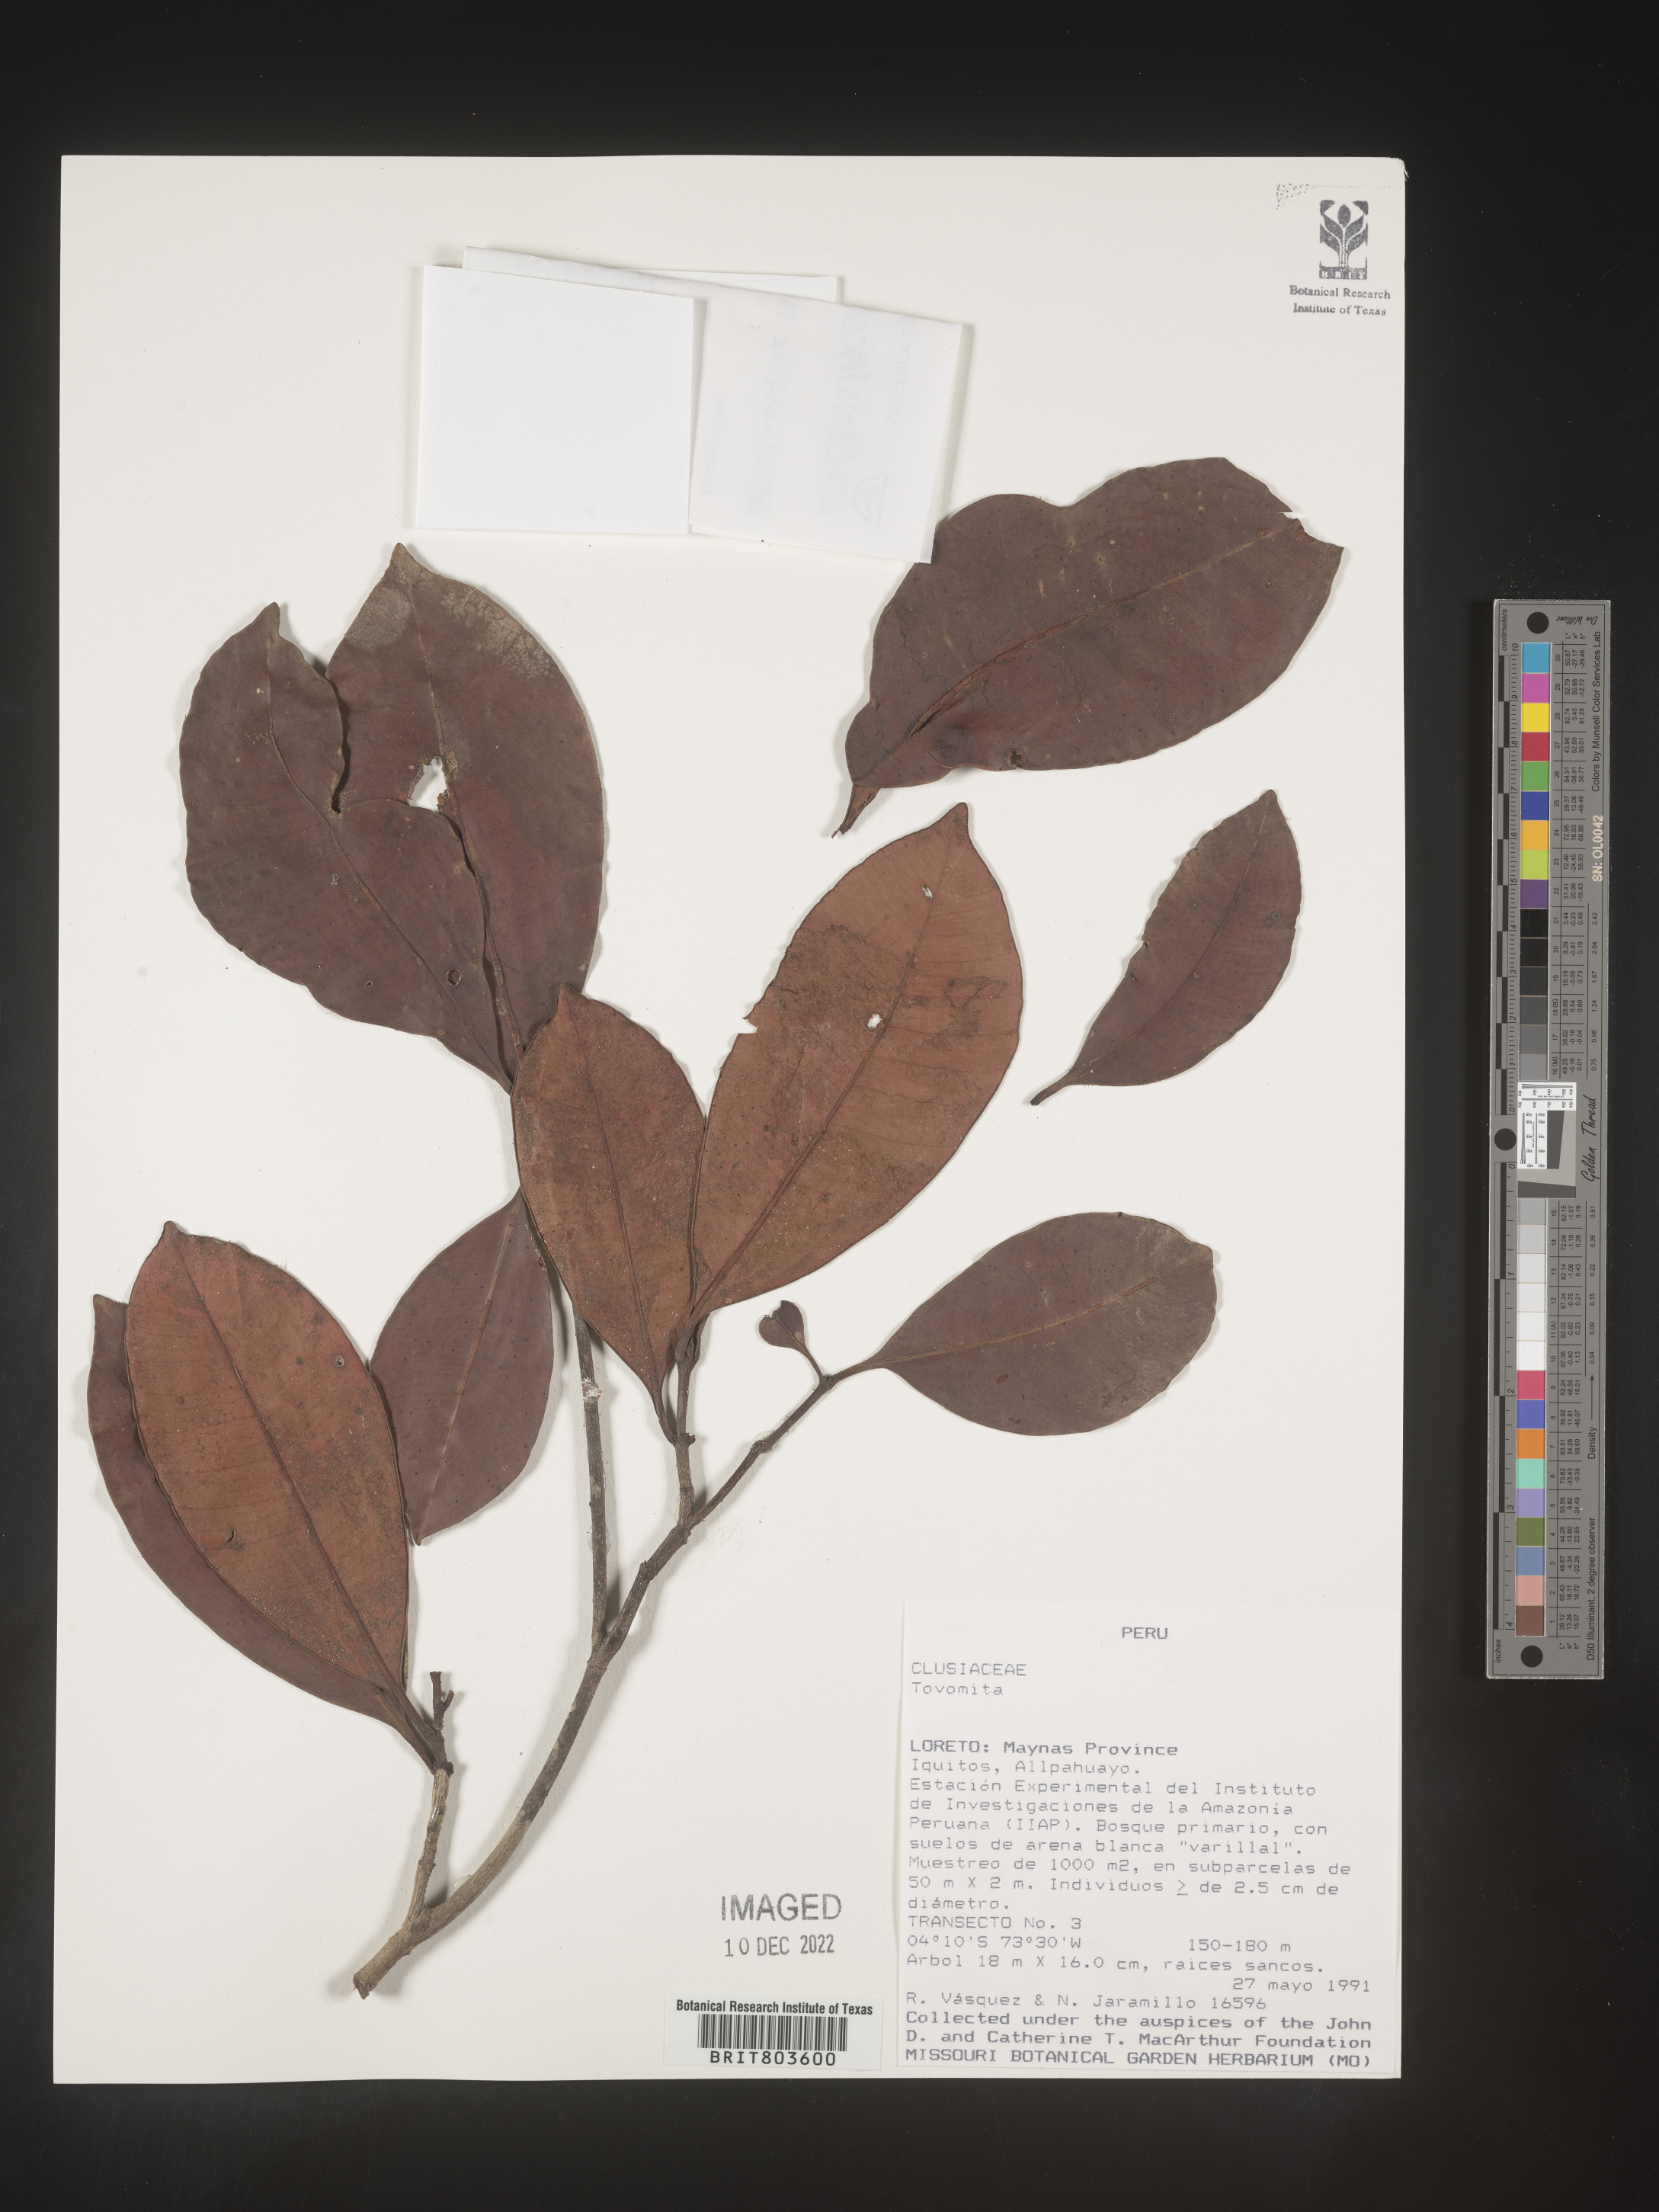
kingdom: Plantae
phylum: Tracheophyta
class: Magnoliopsida
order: Malpighiales
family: Clusiaceae
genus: Tovomita
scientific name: Tovomita
